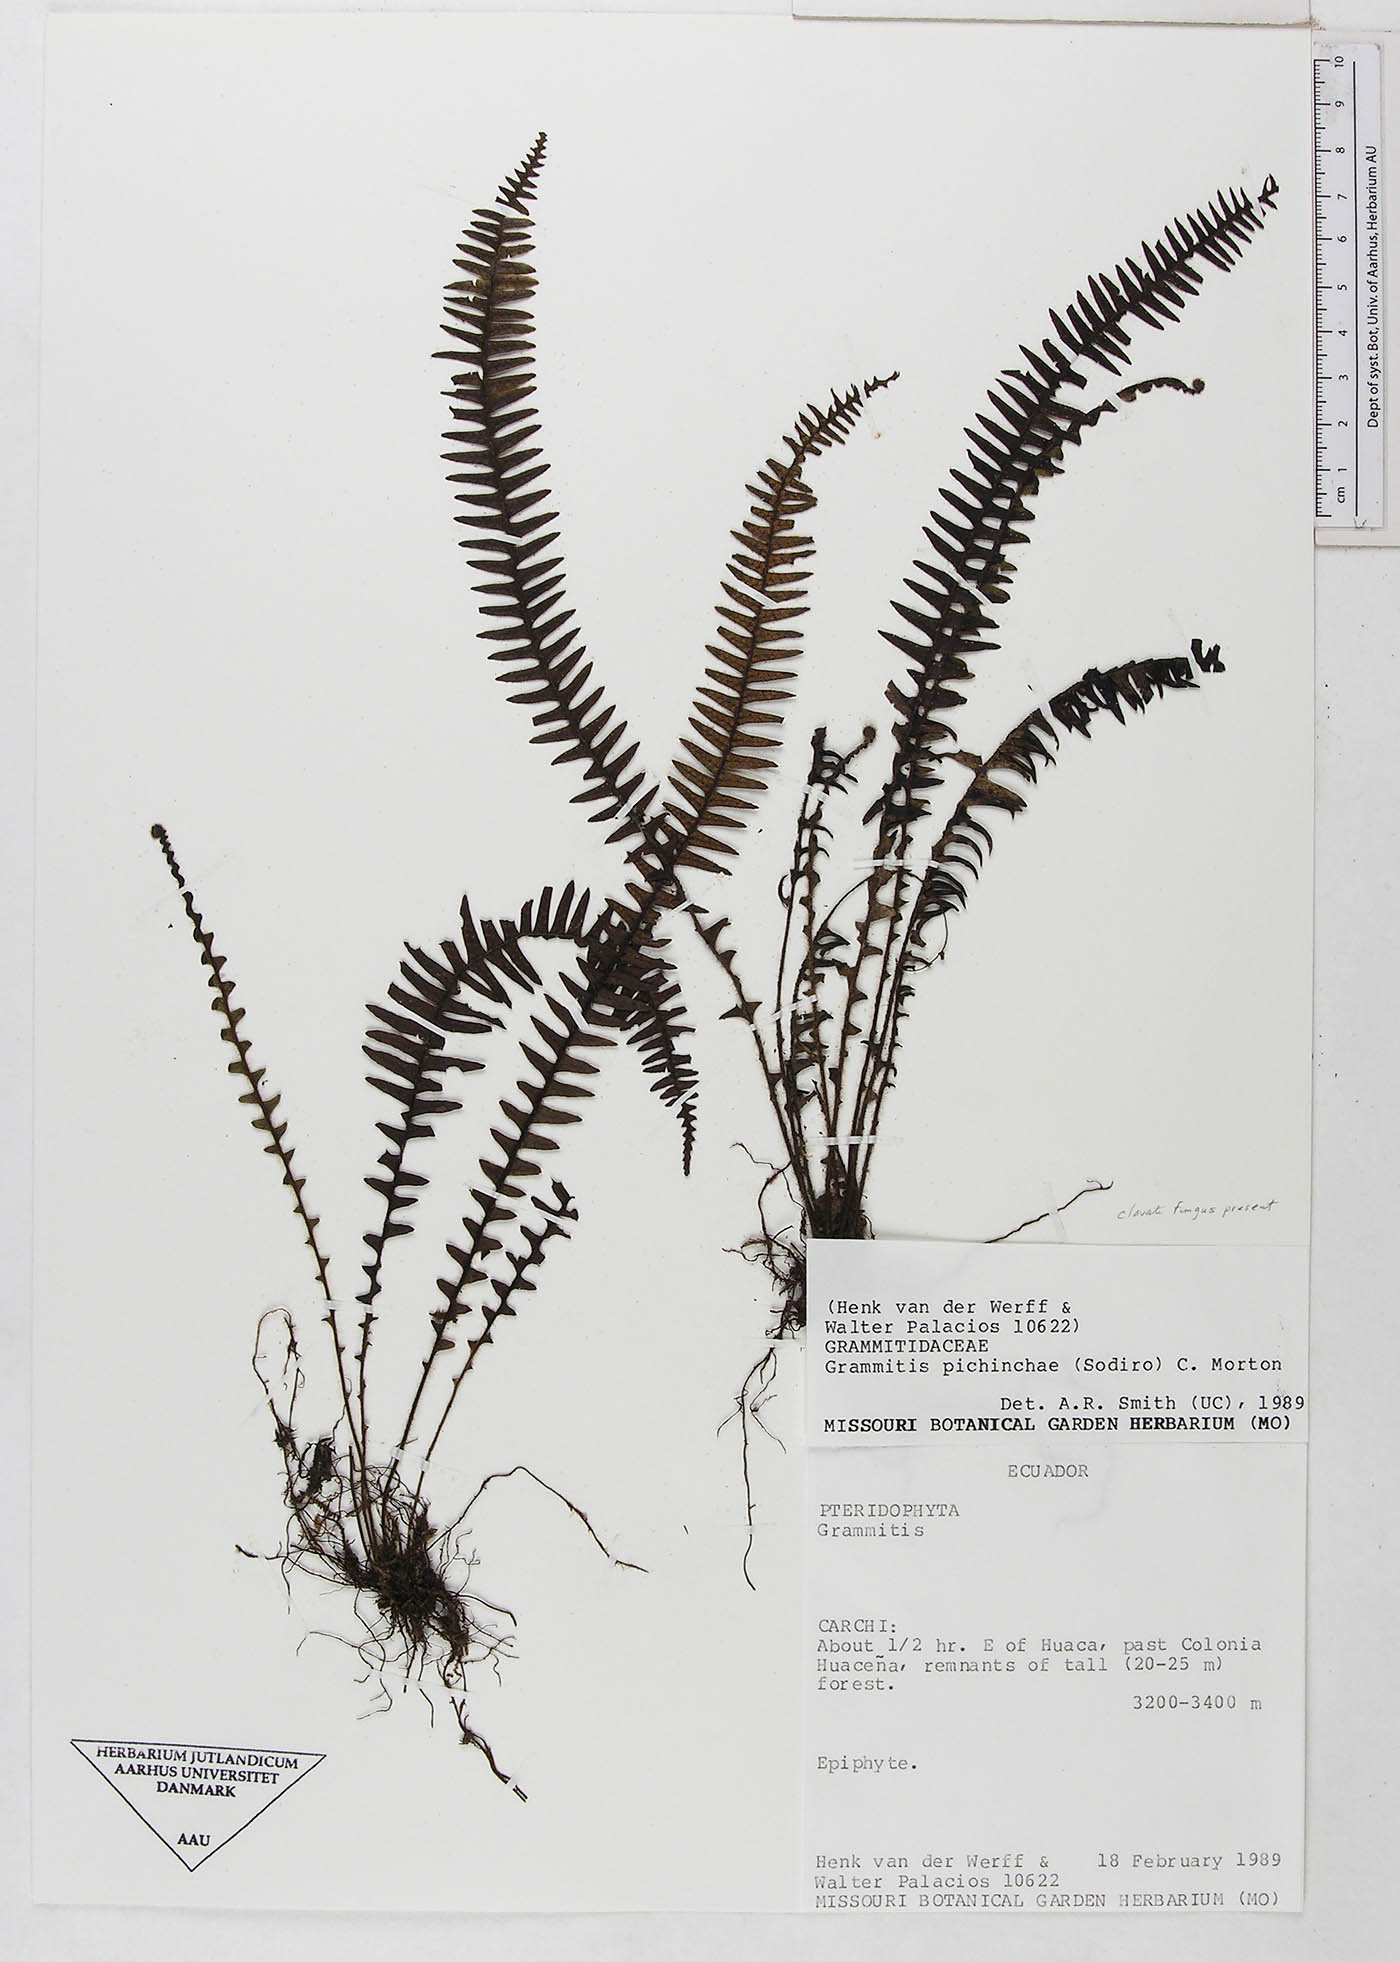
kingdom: Plantae
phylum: Tracheophyta
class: Polypodiopsida
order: Polypodiales
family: Polypodiaceae
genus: Ascogrammitis
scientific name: Ascogrammitis pichinchae
